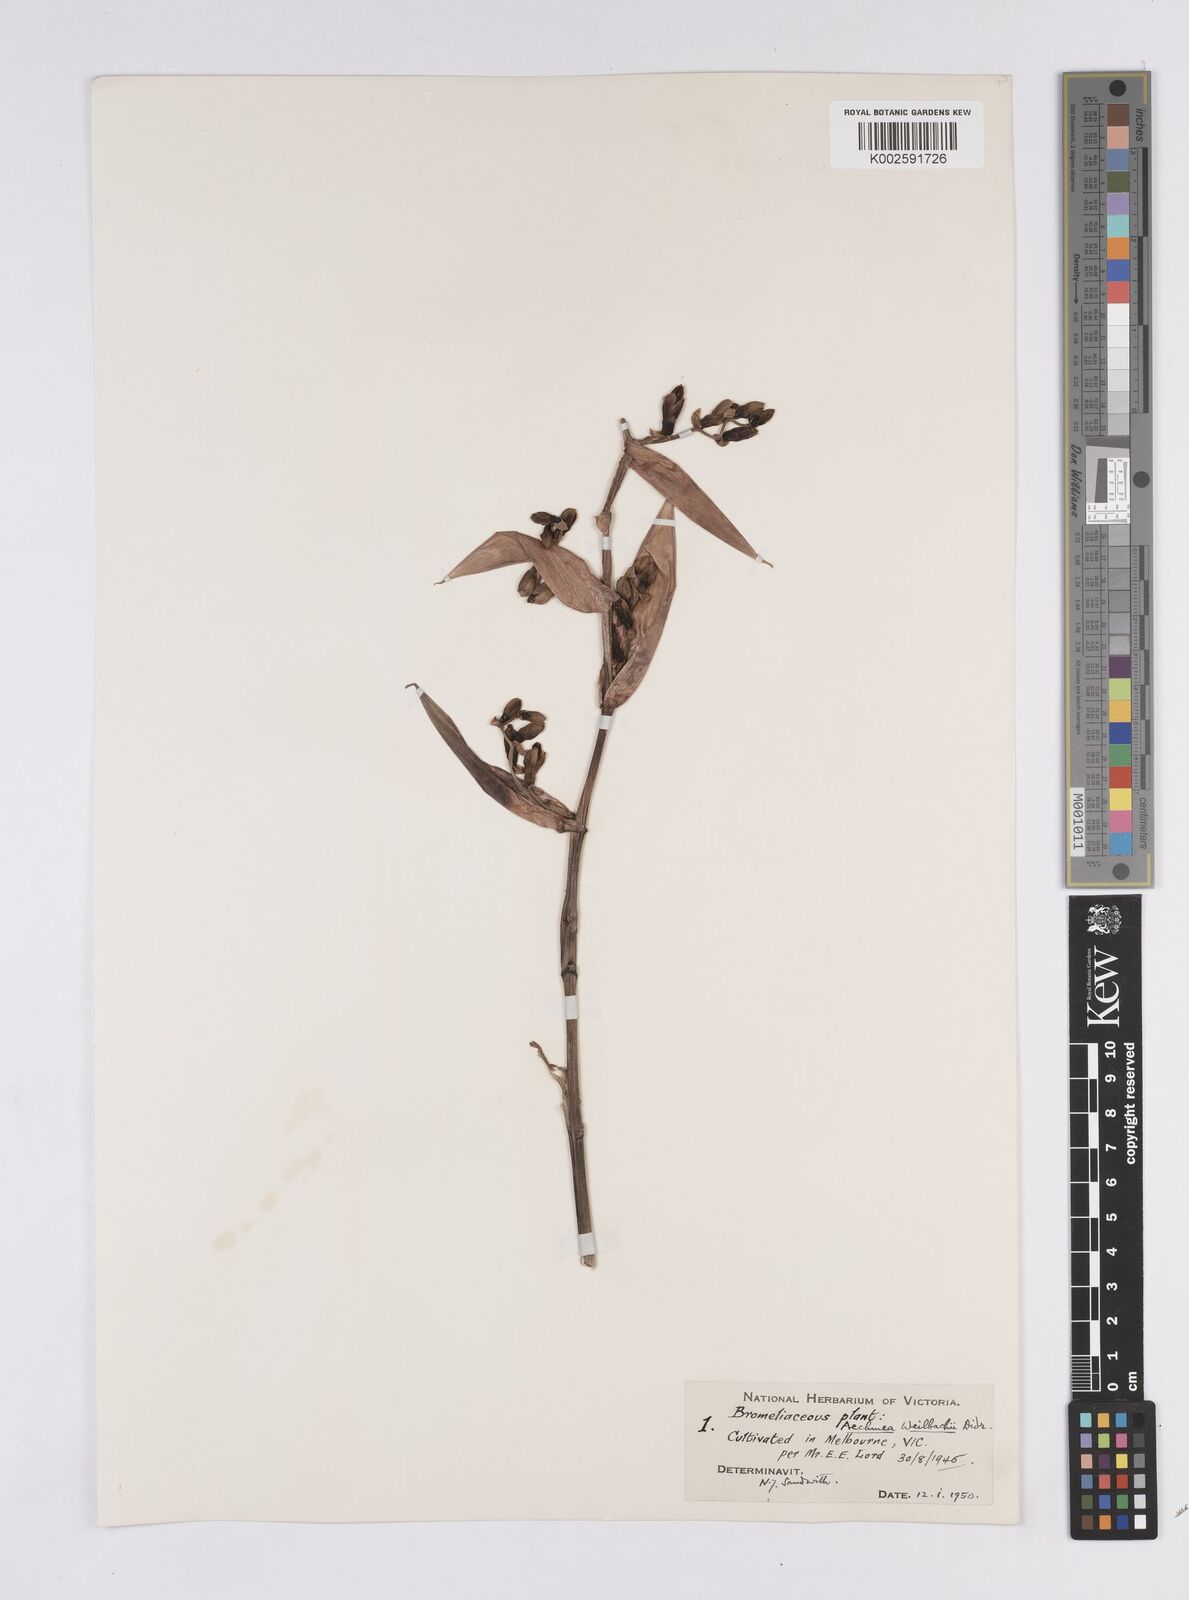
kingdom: Plantae
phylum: Tracheophyta
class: Liliopsida
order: Poales
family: Bromeliaceae
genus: Aechmea
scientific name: Aechmea weilbachii
